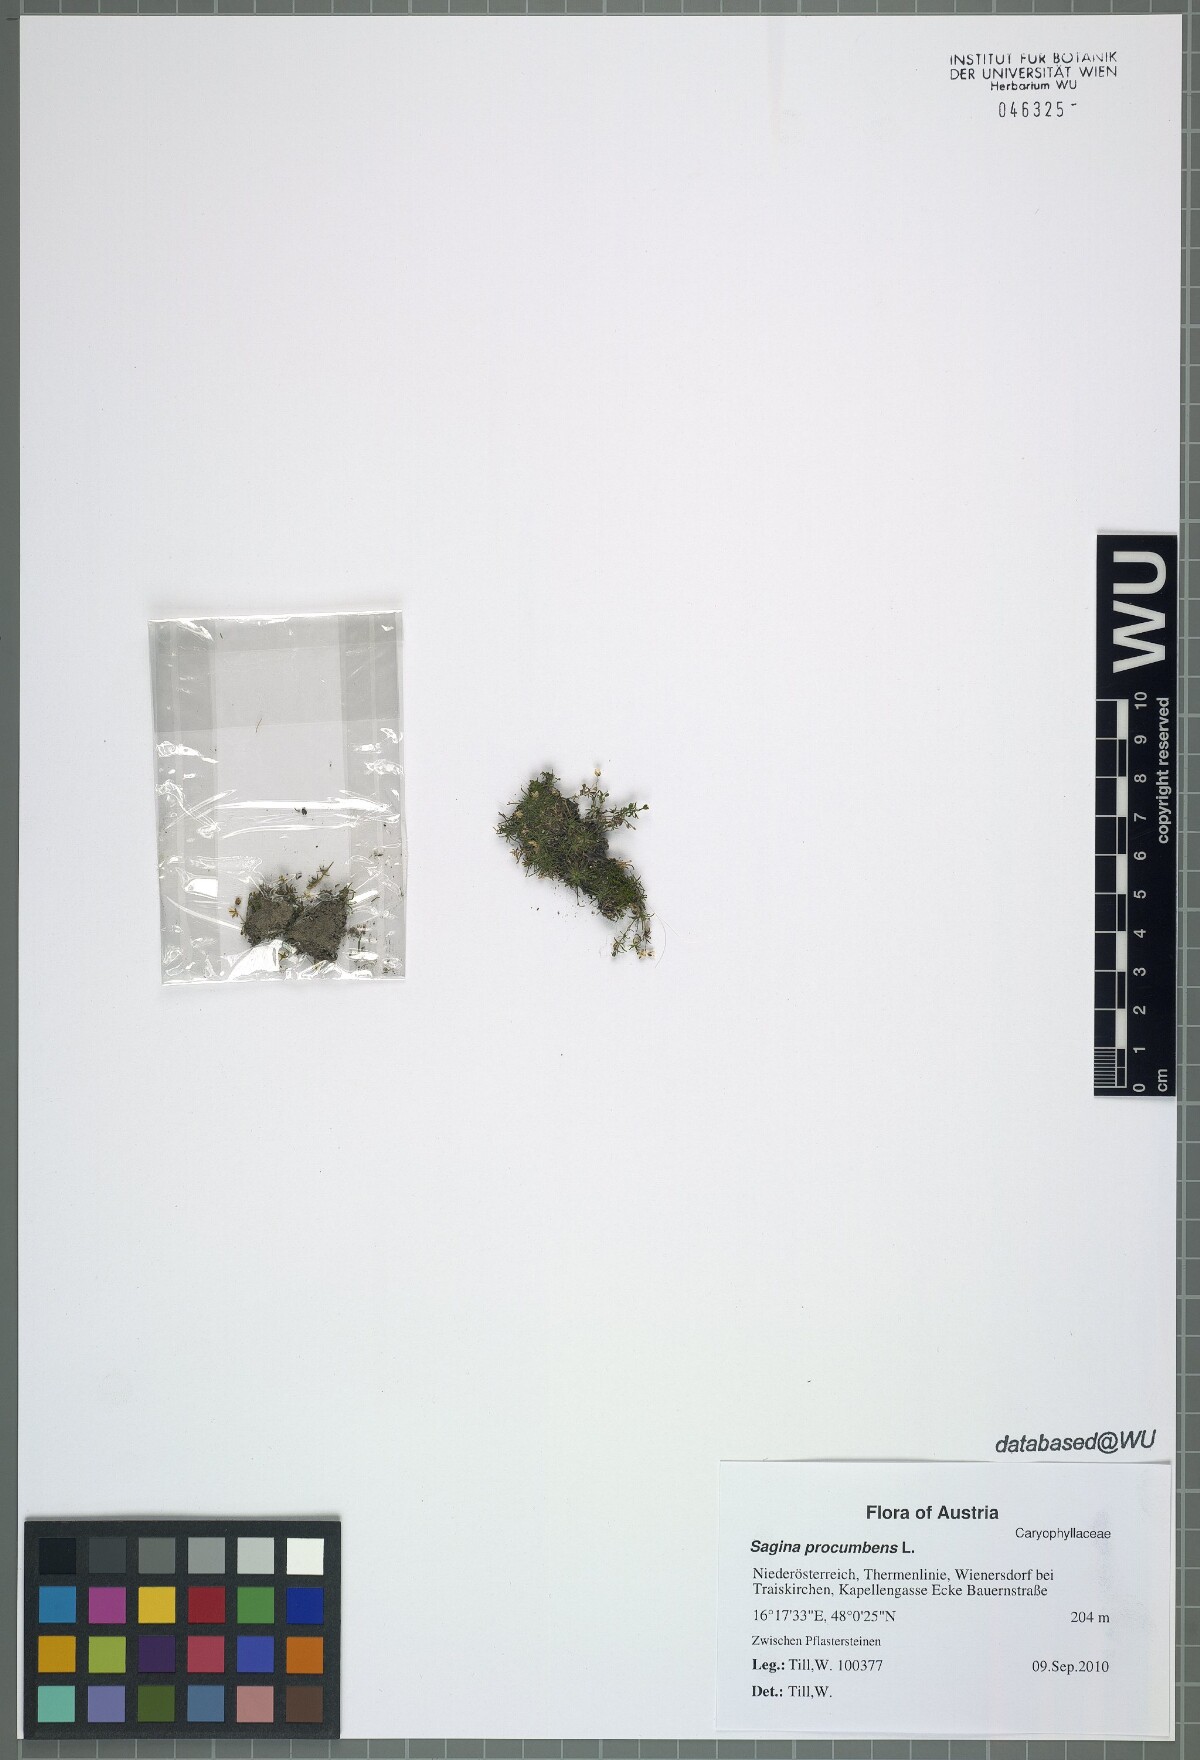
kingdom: Plantae
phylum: Tracheophyta
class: Magnoliopsida
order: Caryophyllales
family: Caryophyllaceae
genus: Sagina
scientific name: Sagina procumbens
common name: Procumbent pearlwort
